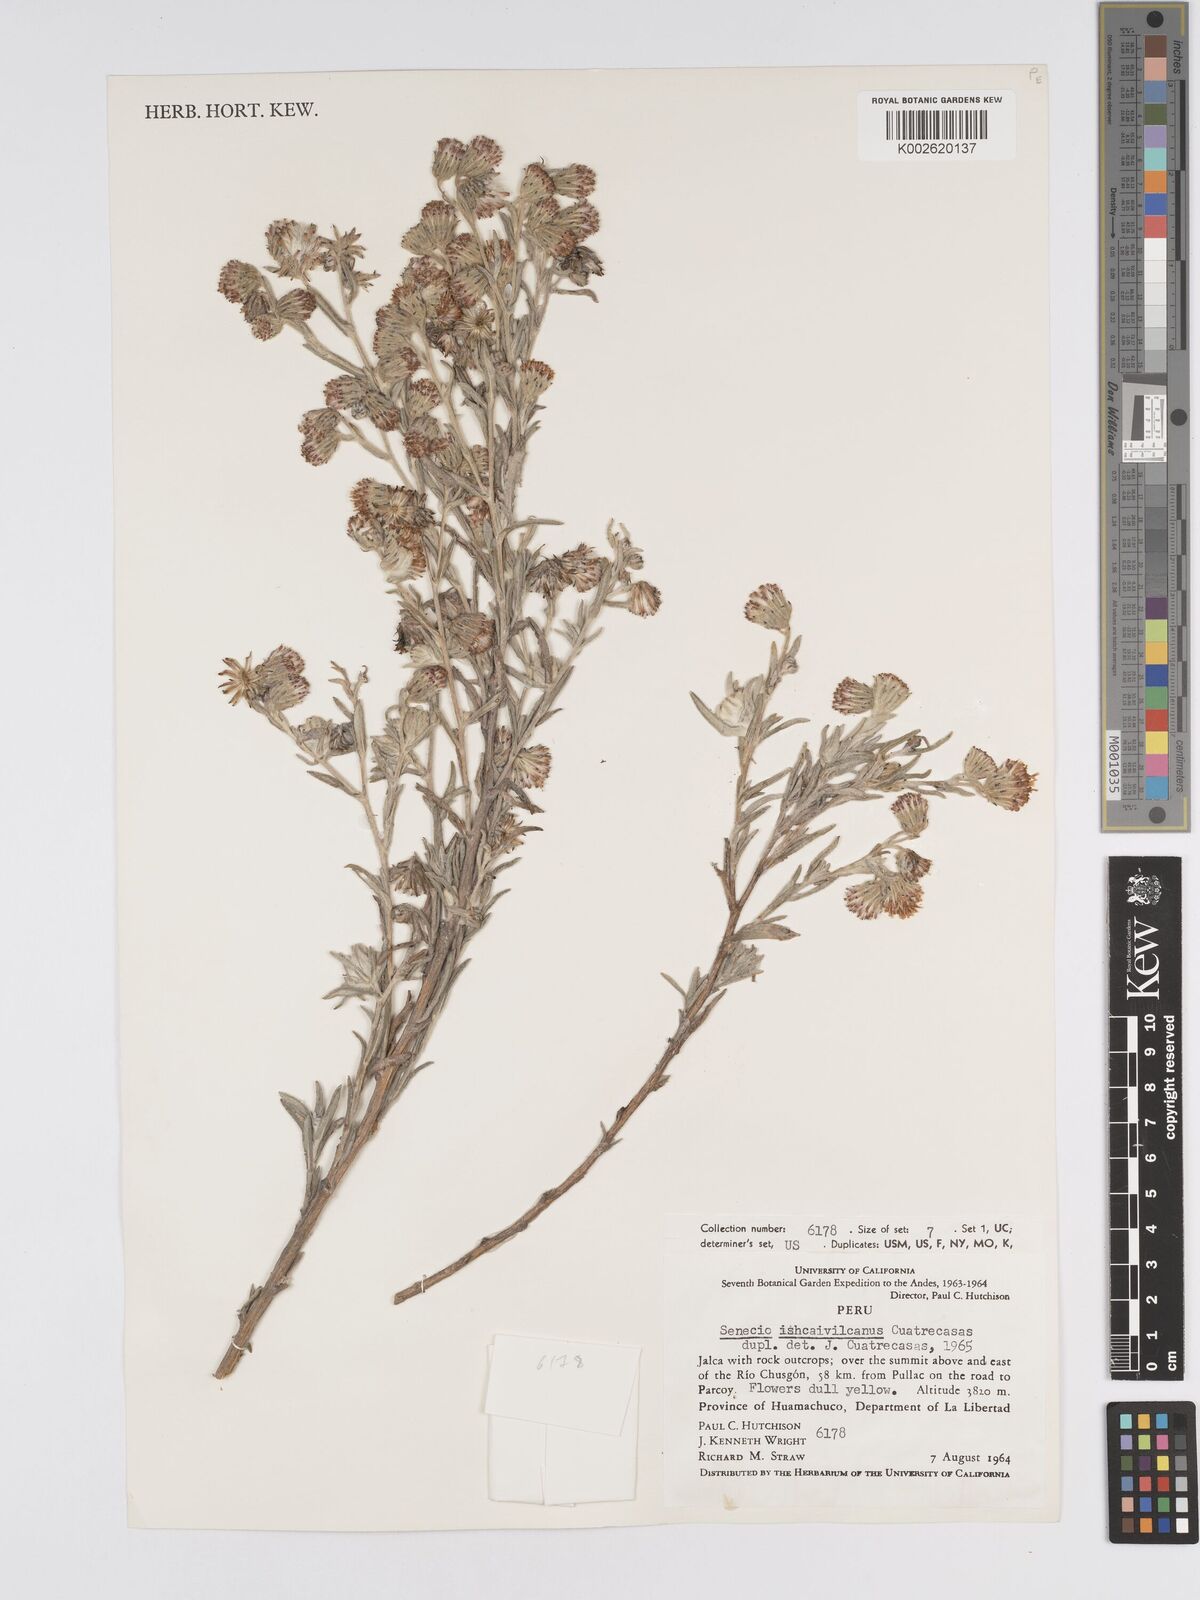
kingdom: Plantae
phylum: Tracheophyta
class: Magnoliopsida
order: Asterales
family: Asteraceae
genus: Senecio
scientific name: Senecio ishcaivilcanus
